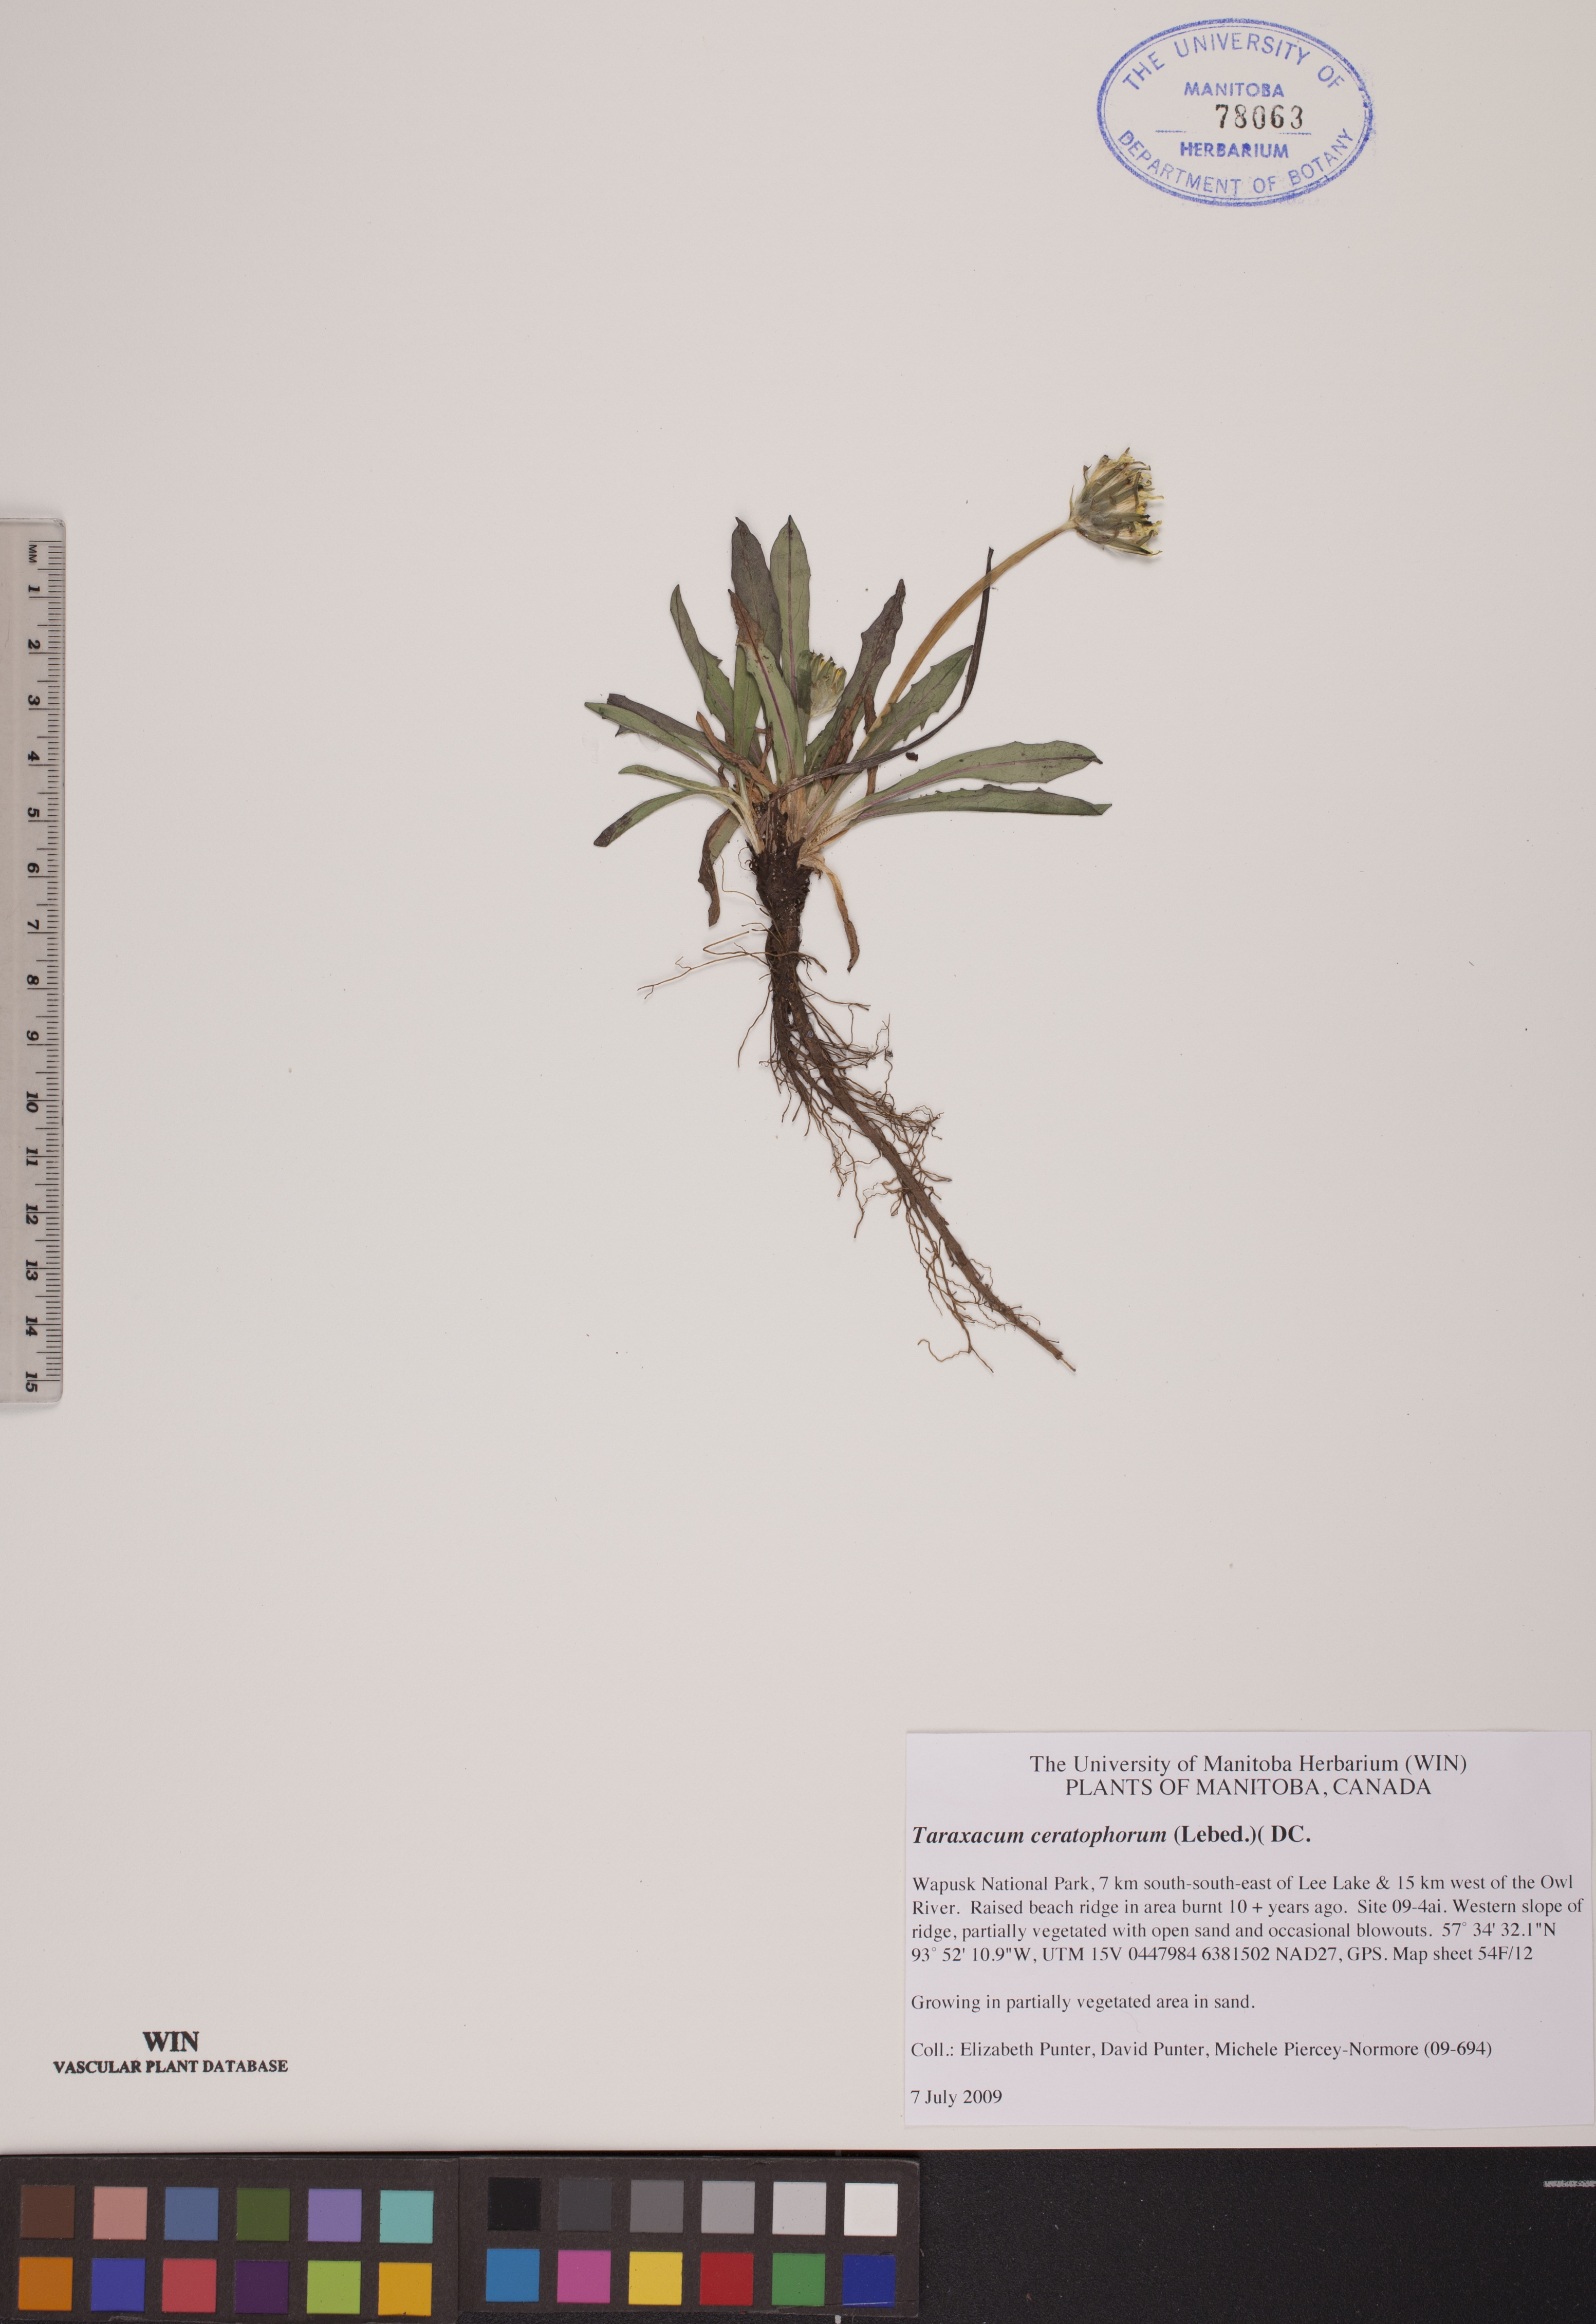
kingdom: Plantae
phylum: Tracheophyta
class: Magnoliopsida
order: Asterales
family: Asteraceae
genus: Taraxacum
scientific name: Taraxacum ceratophorum
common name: Horn-bearing dandelion
